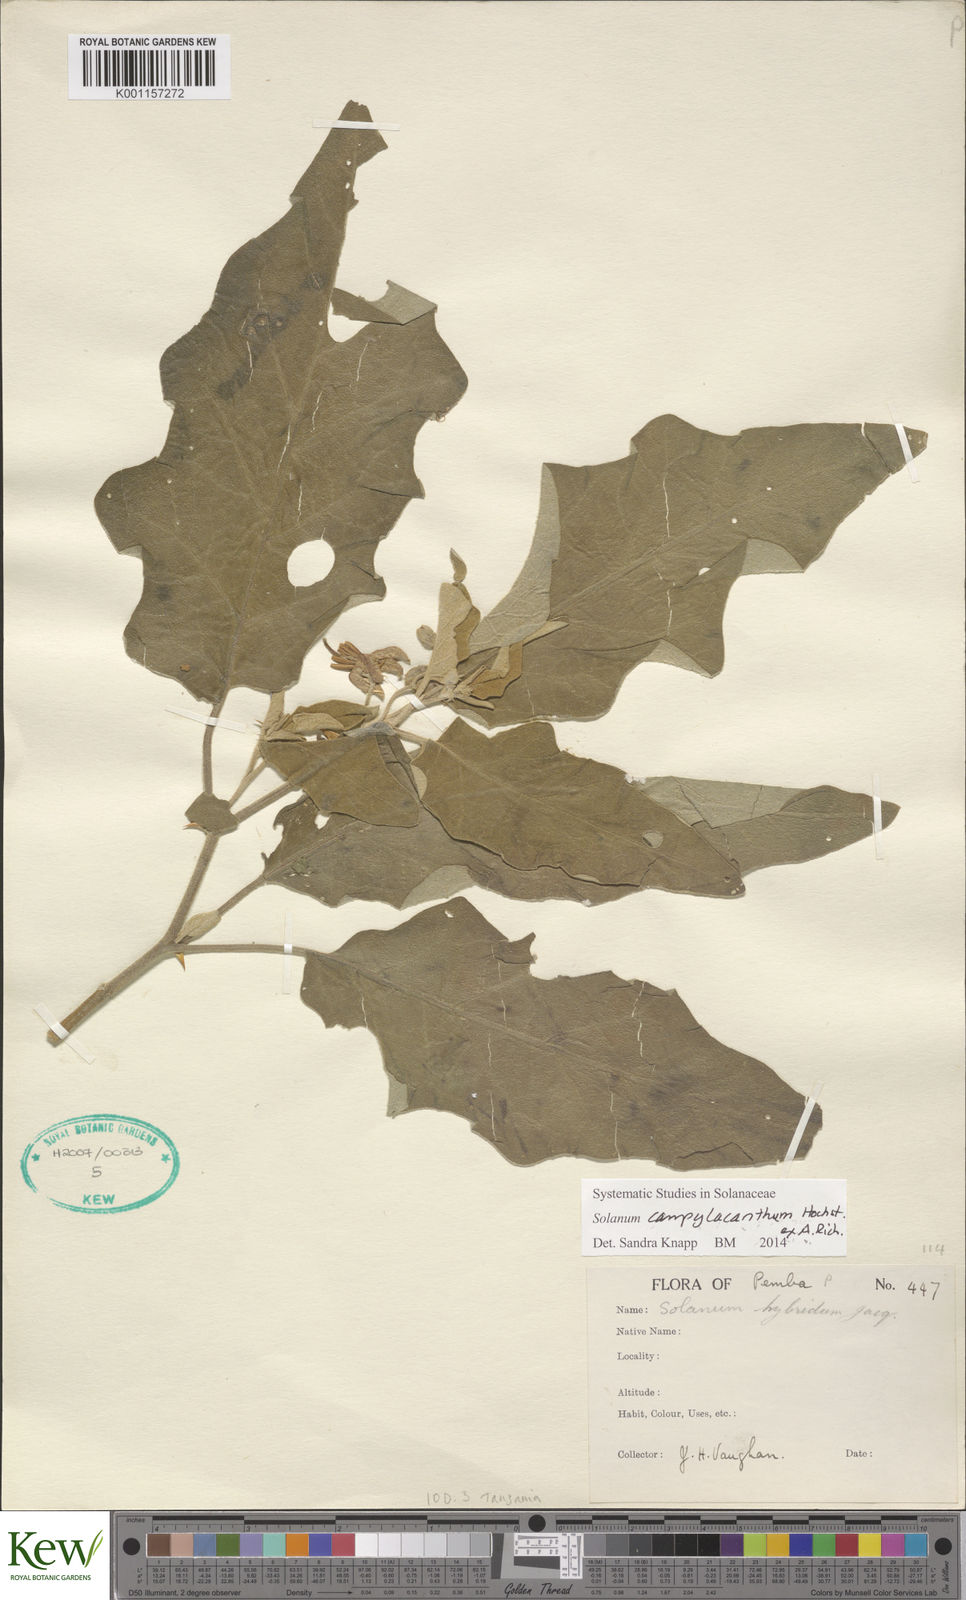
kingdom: Plantae
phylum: Tracheophyta
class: Magnoliopsida
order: Solanales
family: Solanaceae
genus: Solanum
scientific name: Solanum campylacanthum
